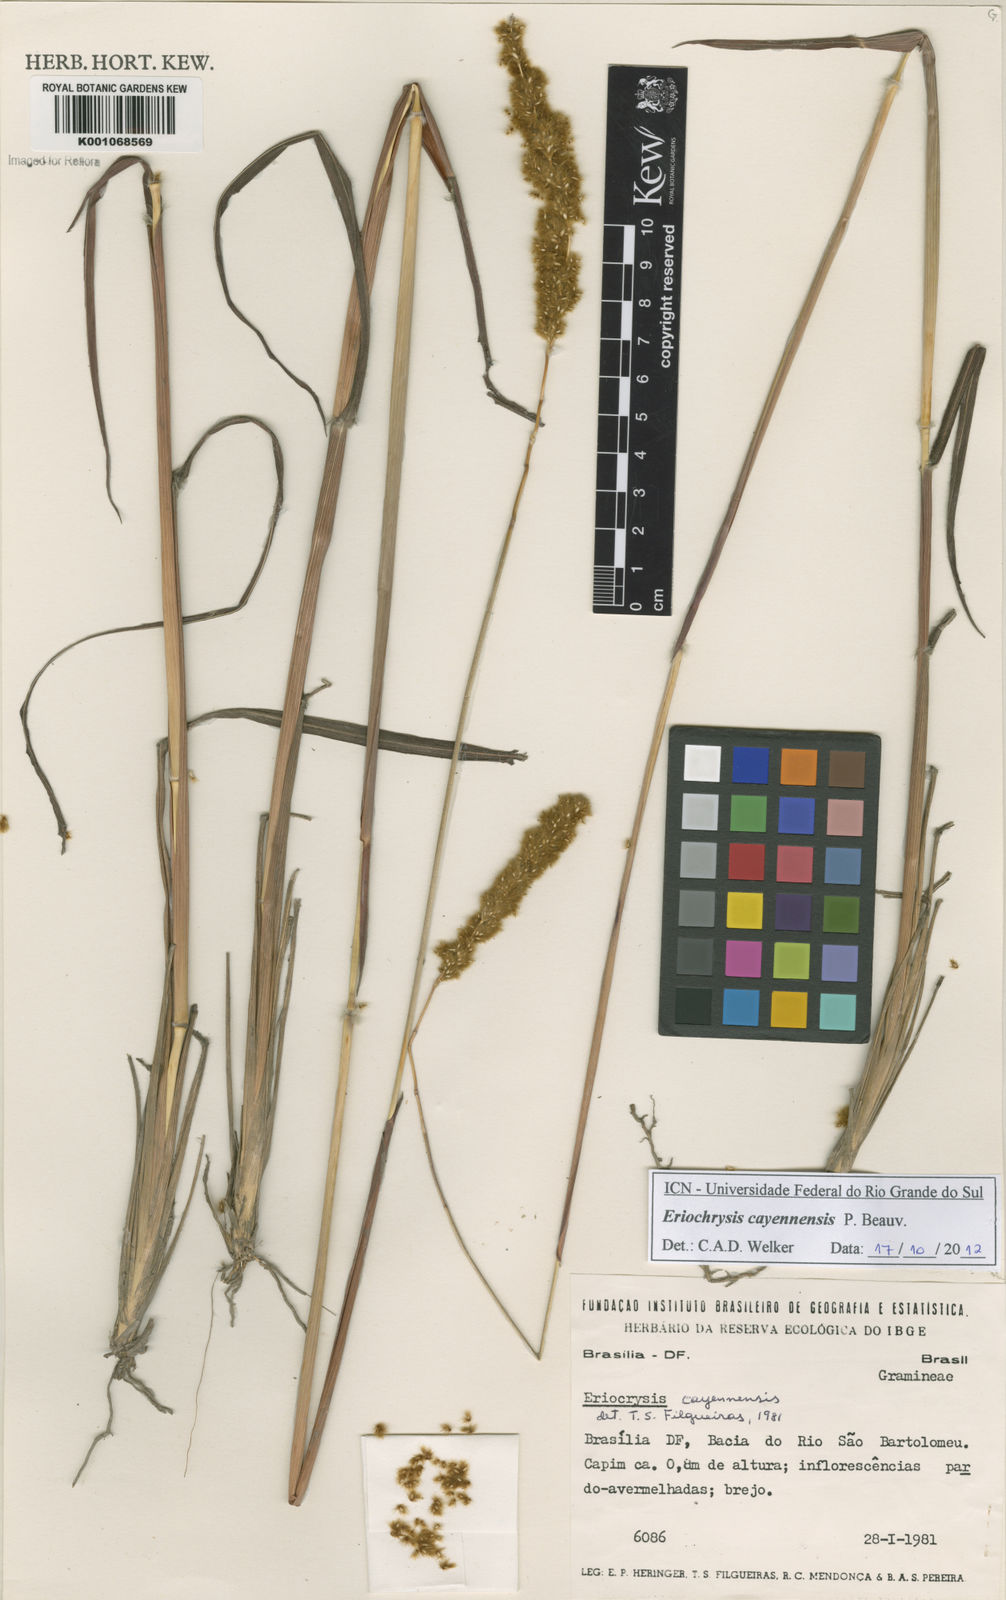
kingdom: Plantae
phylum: Tracheophyta
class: Liliopsida
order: Poales
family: Poaceae
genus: Eriochrysis
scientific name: Eriochrysis cayennensis
